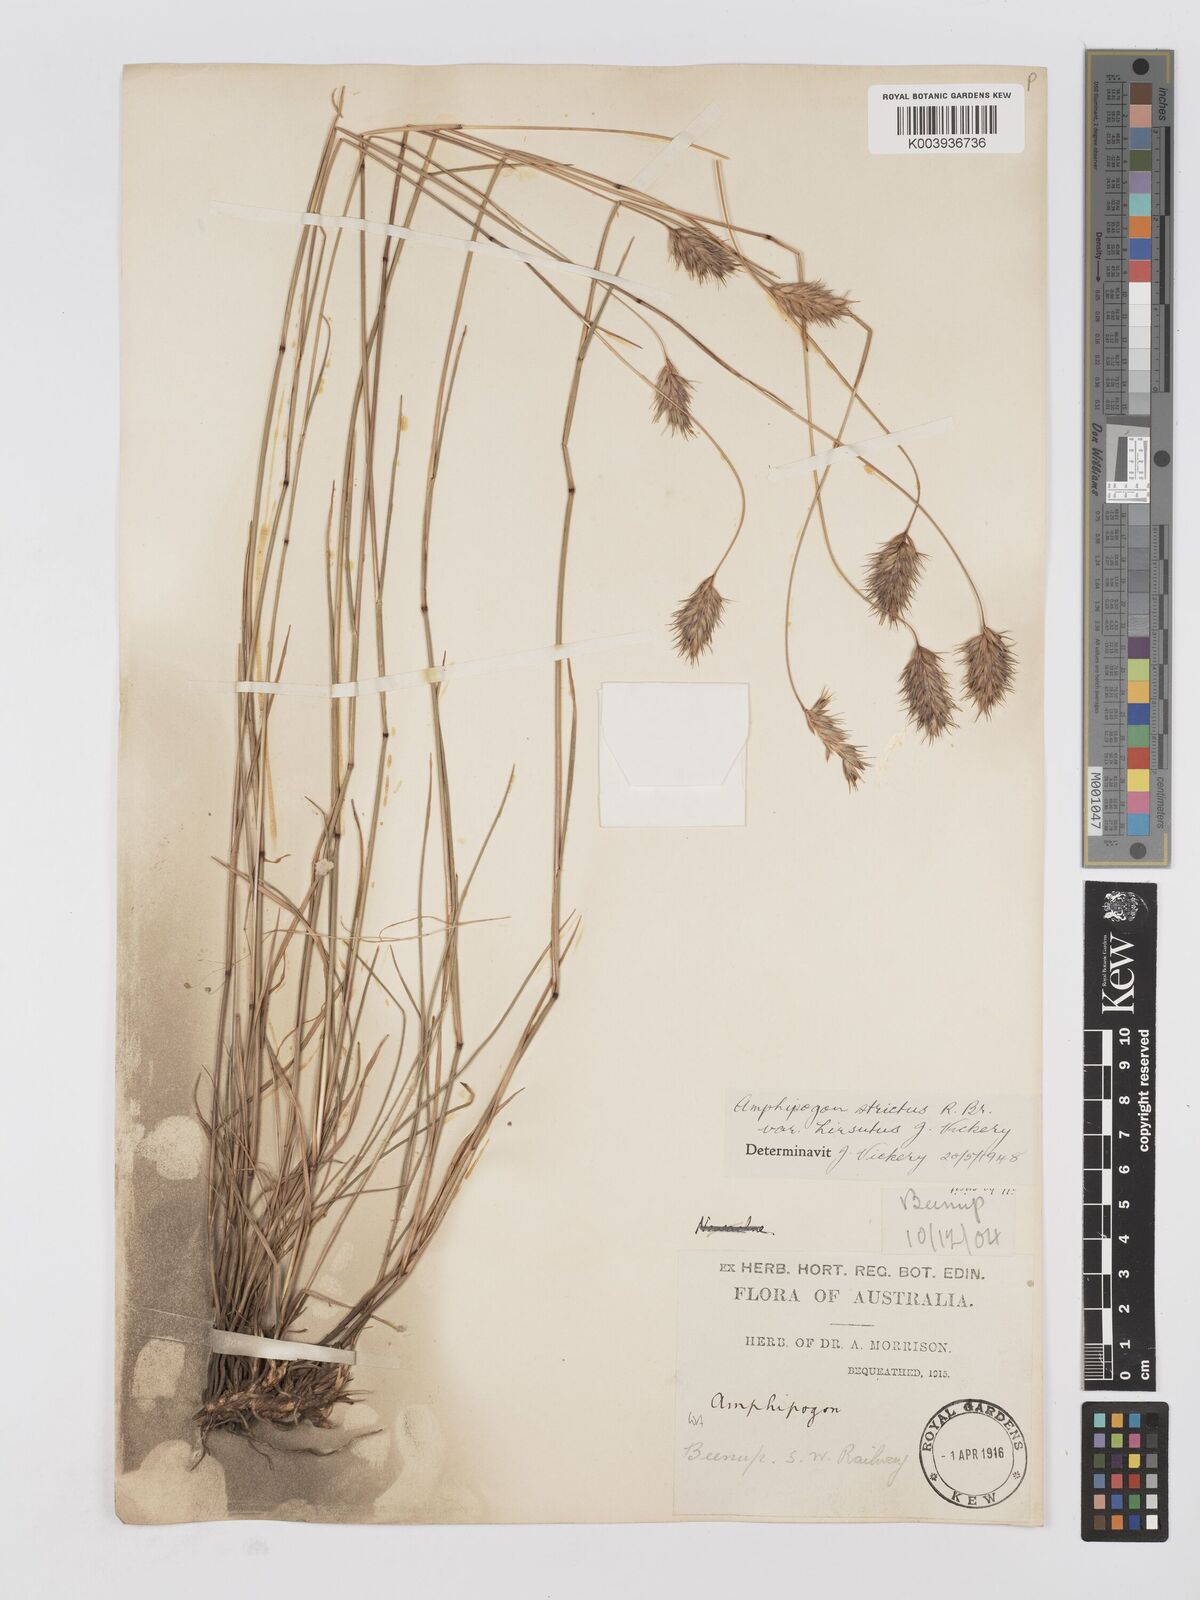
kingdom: Plantae
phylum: Tracheophyta
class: Liliopsida
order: Poales
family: Poaceae
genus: Amphipogon
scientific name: Amphipogon strictus
